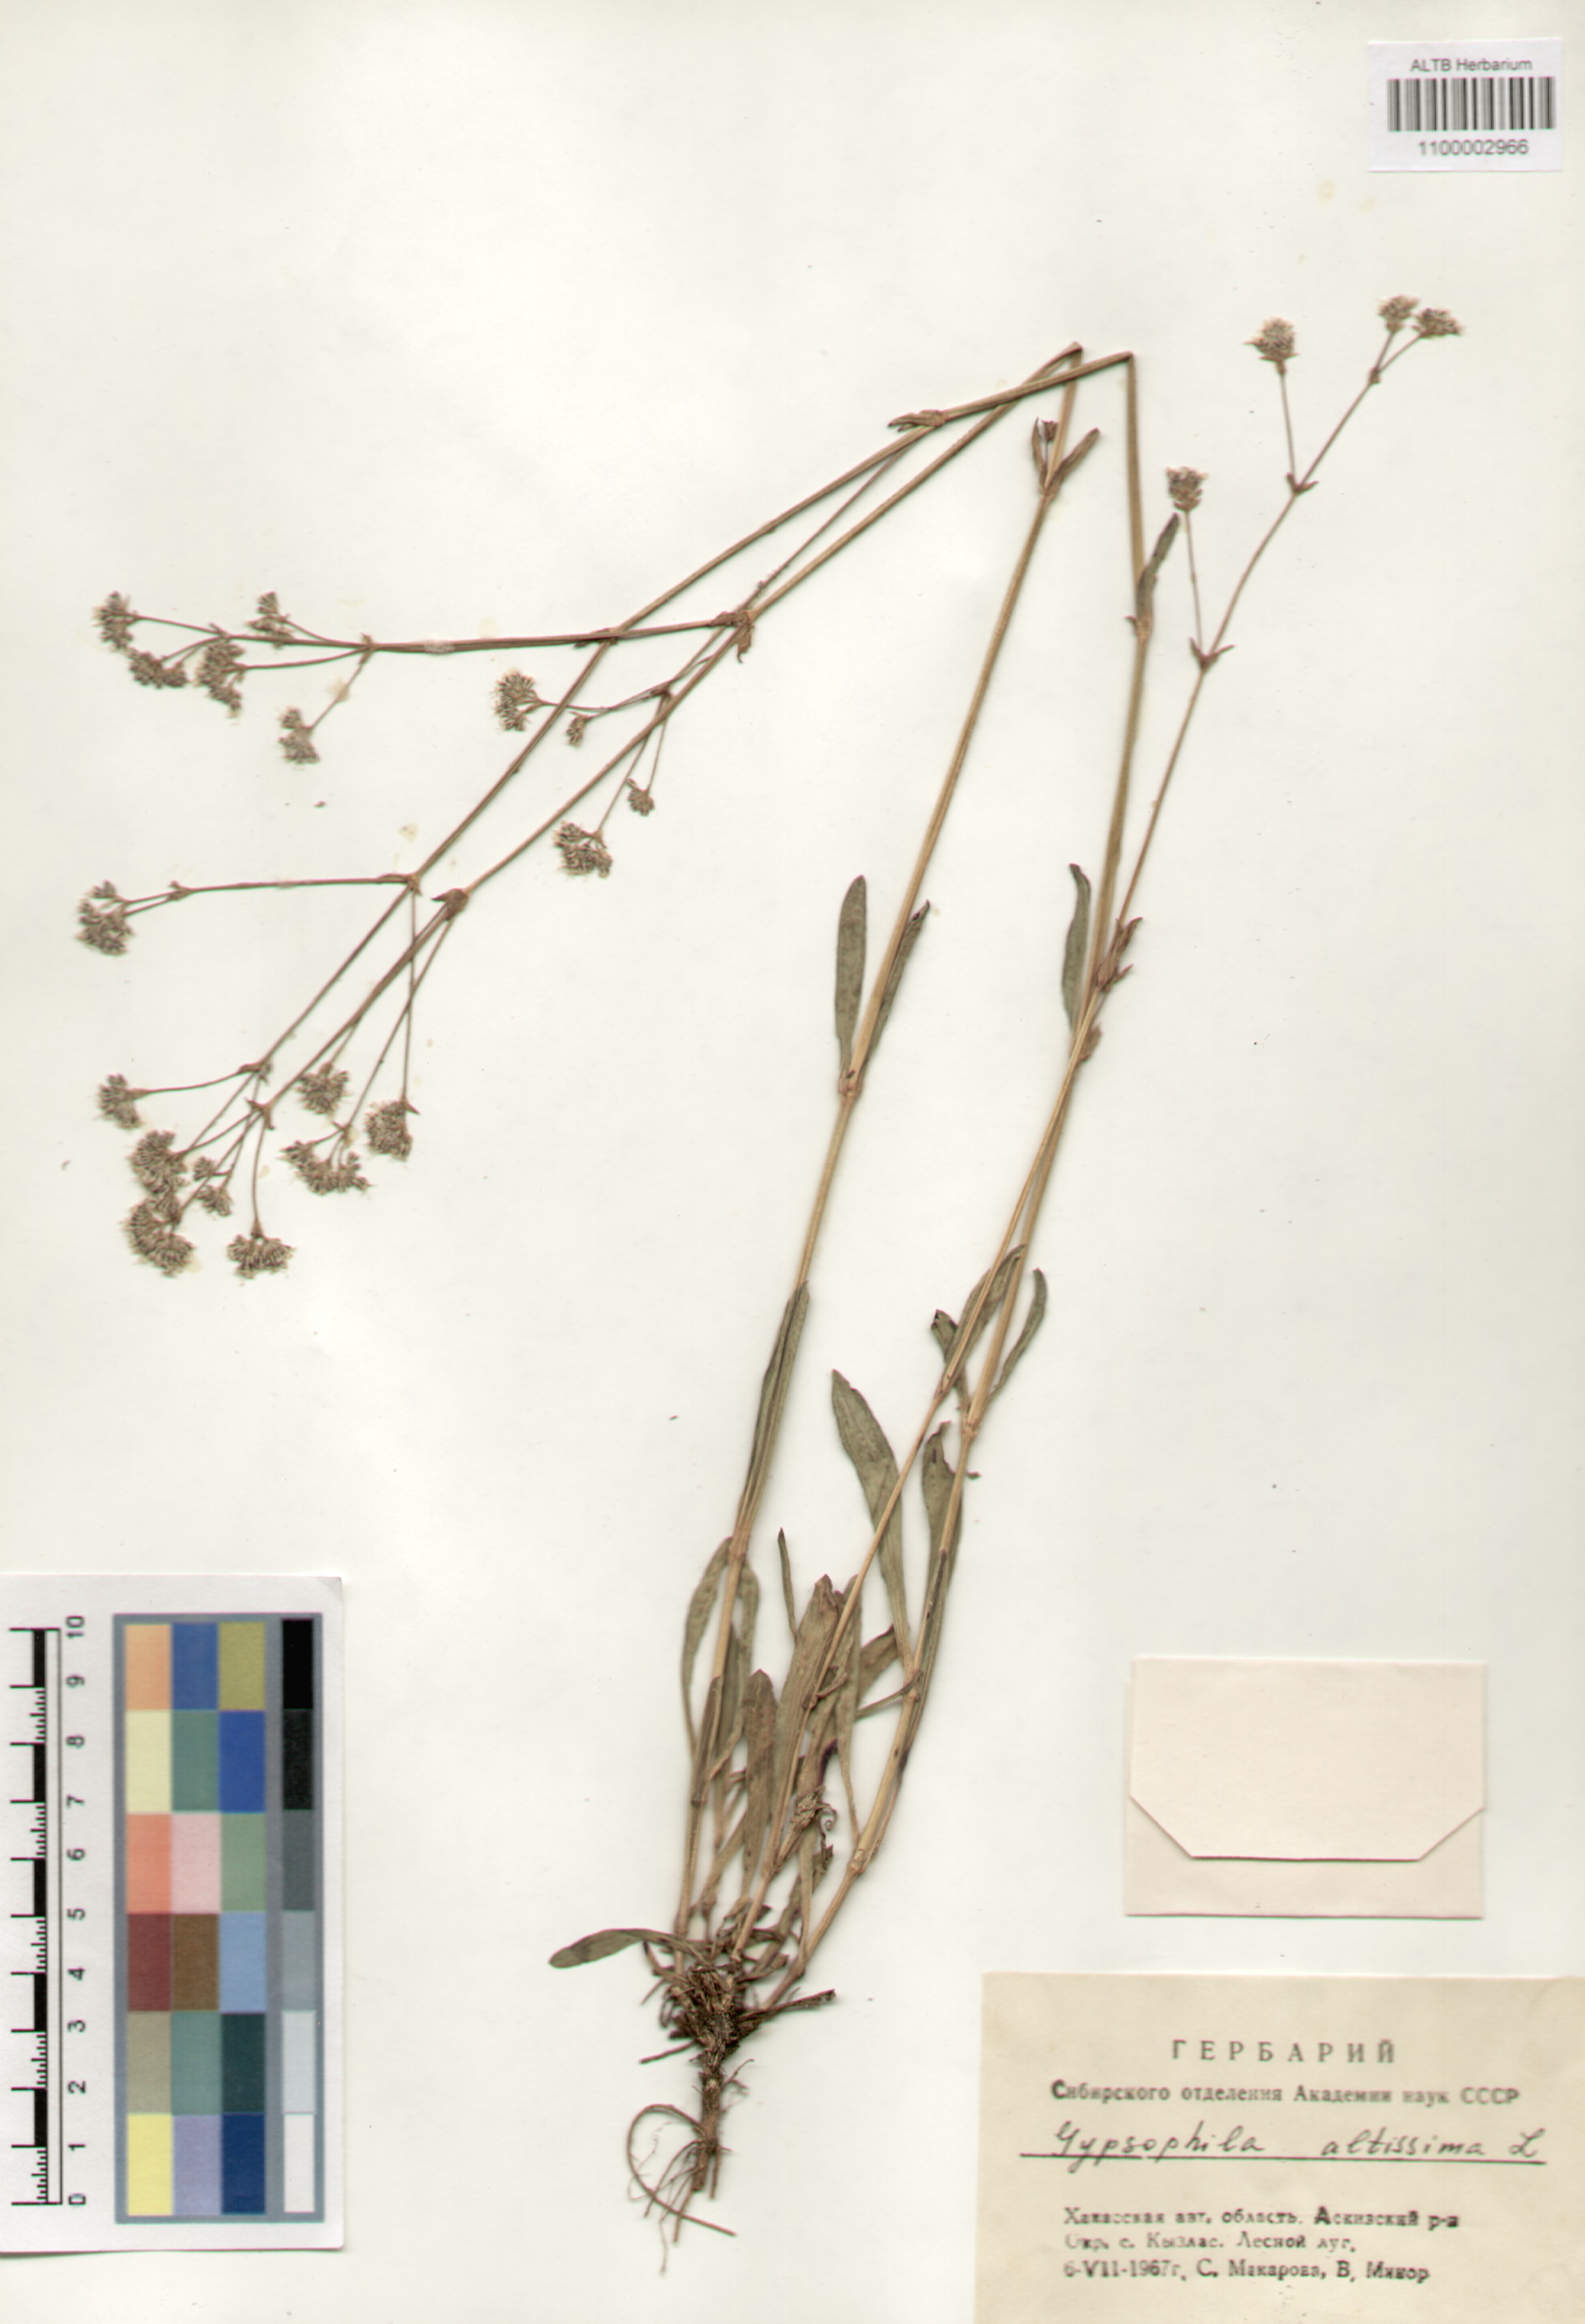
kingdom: Plantae
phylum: Tracheophyta
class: Magnoliopsida
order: Caryophyllales
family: Caryophyllaceae
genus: Gypsophila
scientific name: Gypsophila altissima
